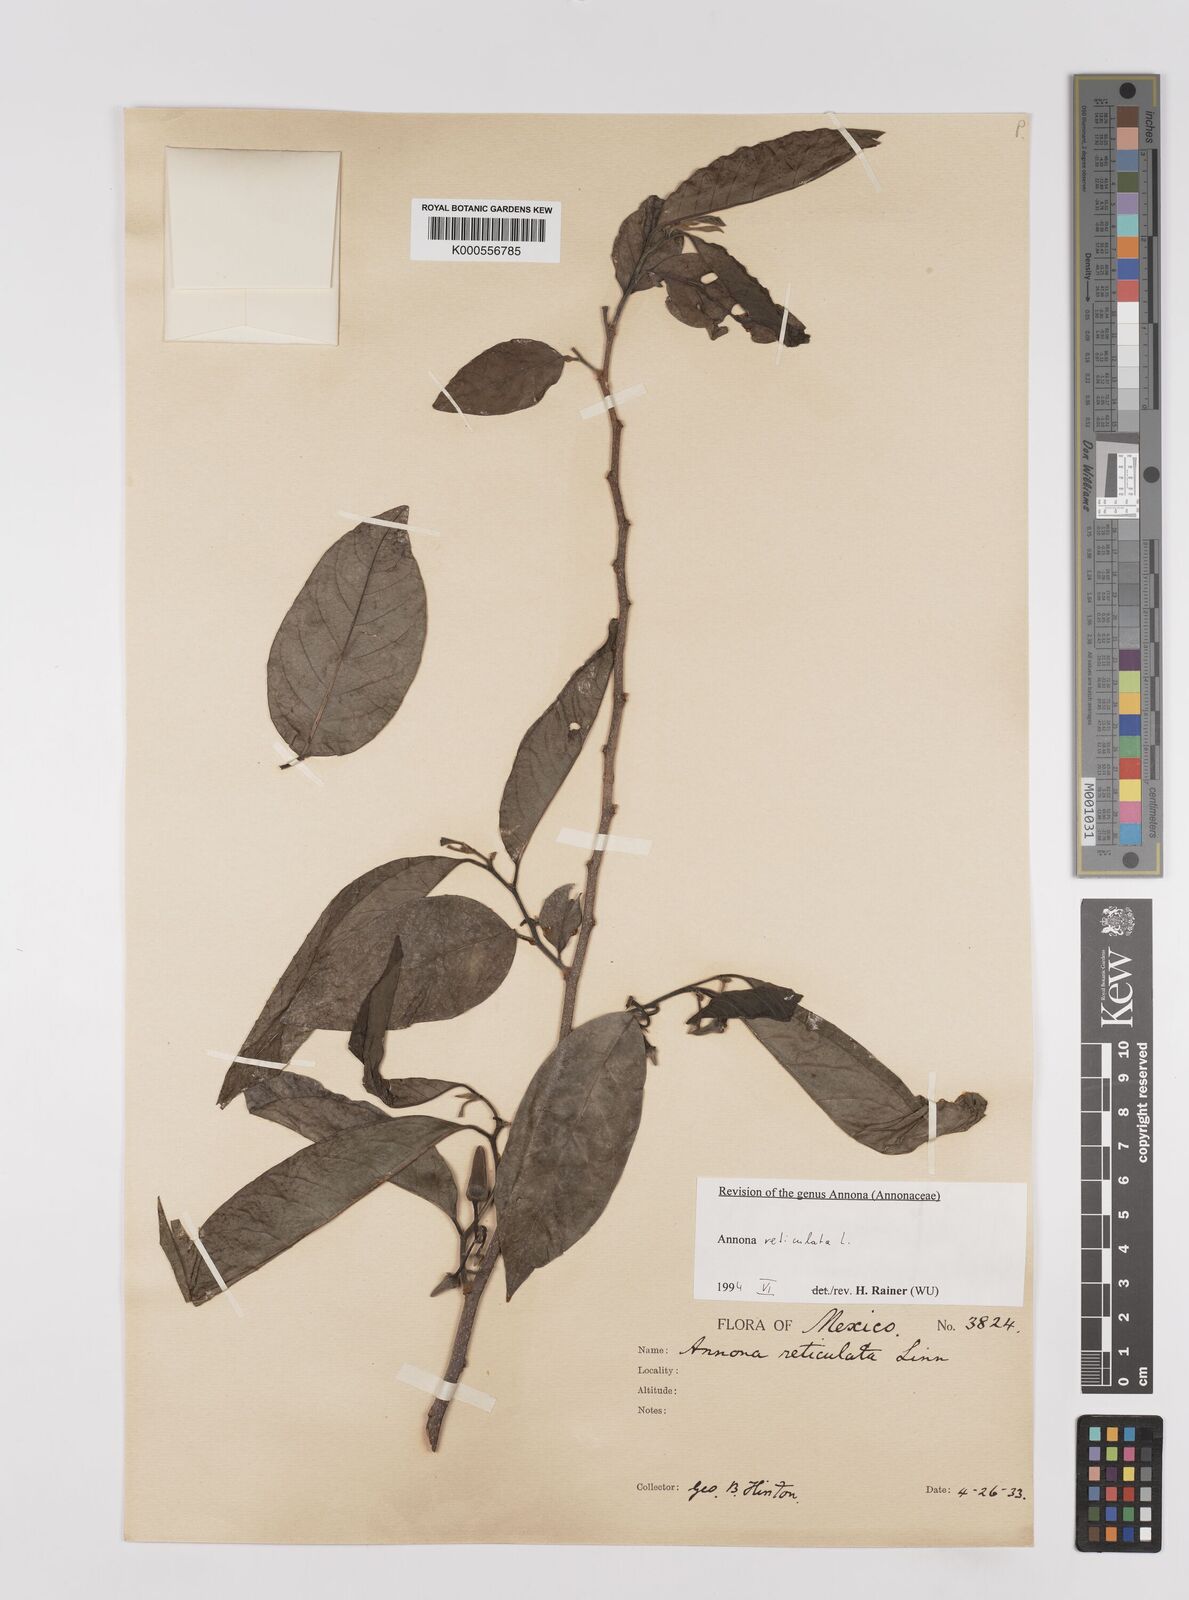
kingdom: Plantae
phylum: Tracheophyta
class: Magnoliopsida
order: Magnoliales
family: Annonaceae
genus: Annona
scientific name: Annona reticulata
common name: Custard apple
